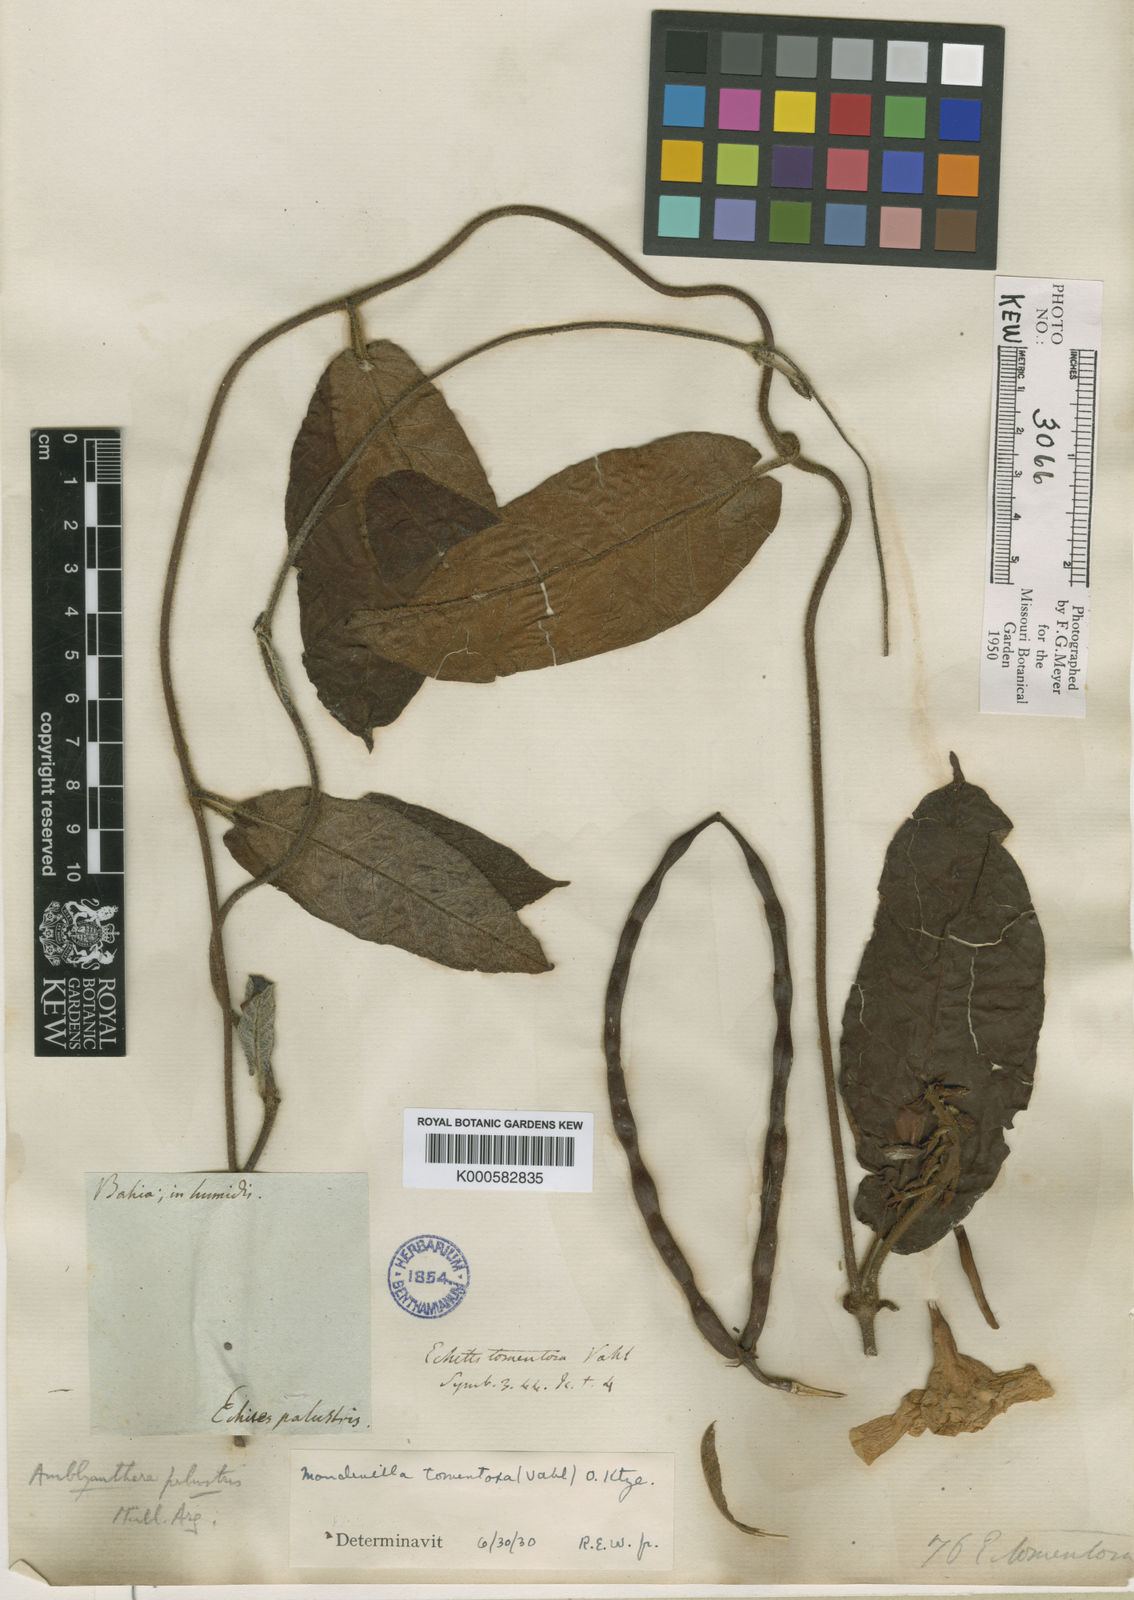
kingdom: Plantae
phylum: Tracheophyta
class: Magnoliopsida
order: Gentianales
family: Apocynaceae
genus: Mandevilla
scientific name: Mandevilla hirsuta
